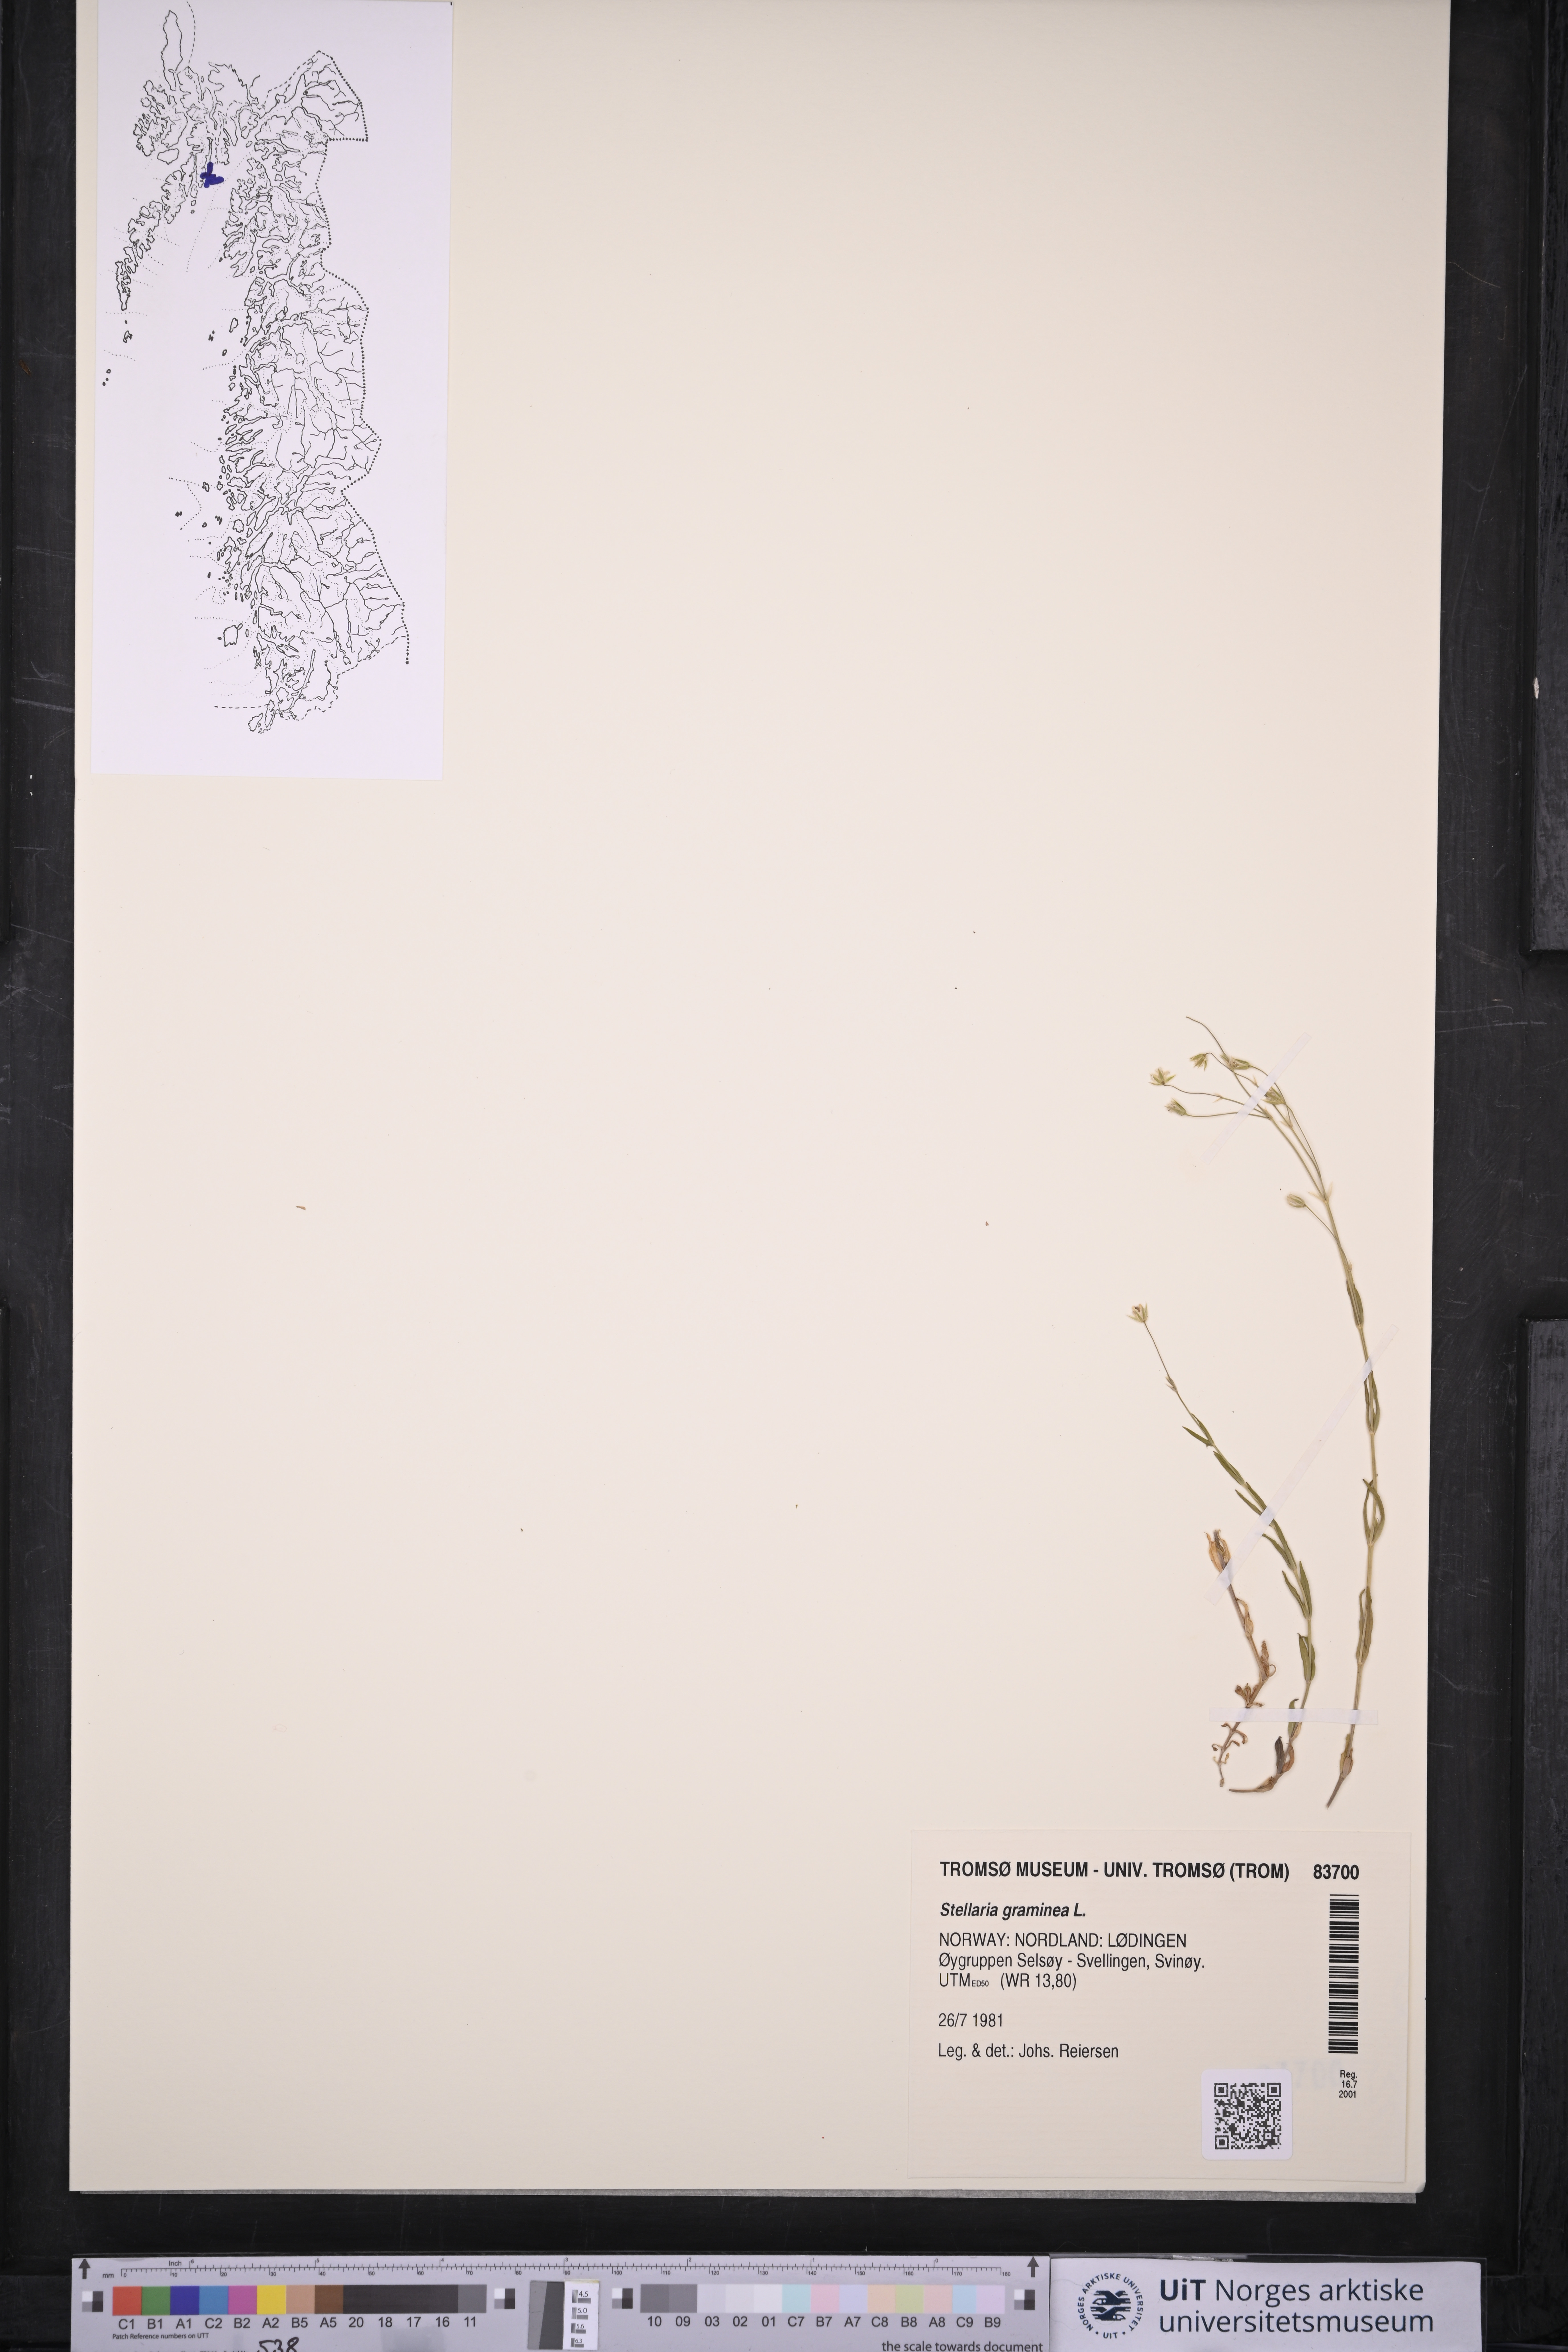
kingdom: Plantae
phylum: Tracheophyta
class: Magnoliopsida
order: Caryophyllales
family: Caryophyllaceae
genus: Stellaria
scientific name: Stellaria graminea
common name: Grass-like starwort
